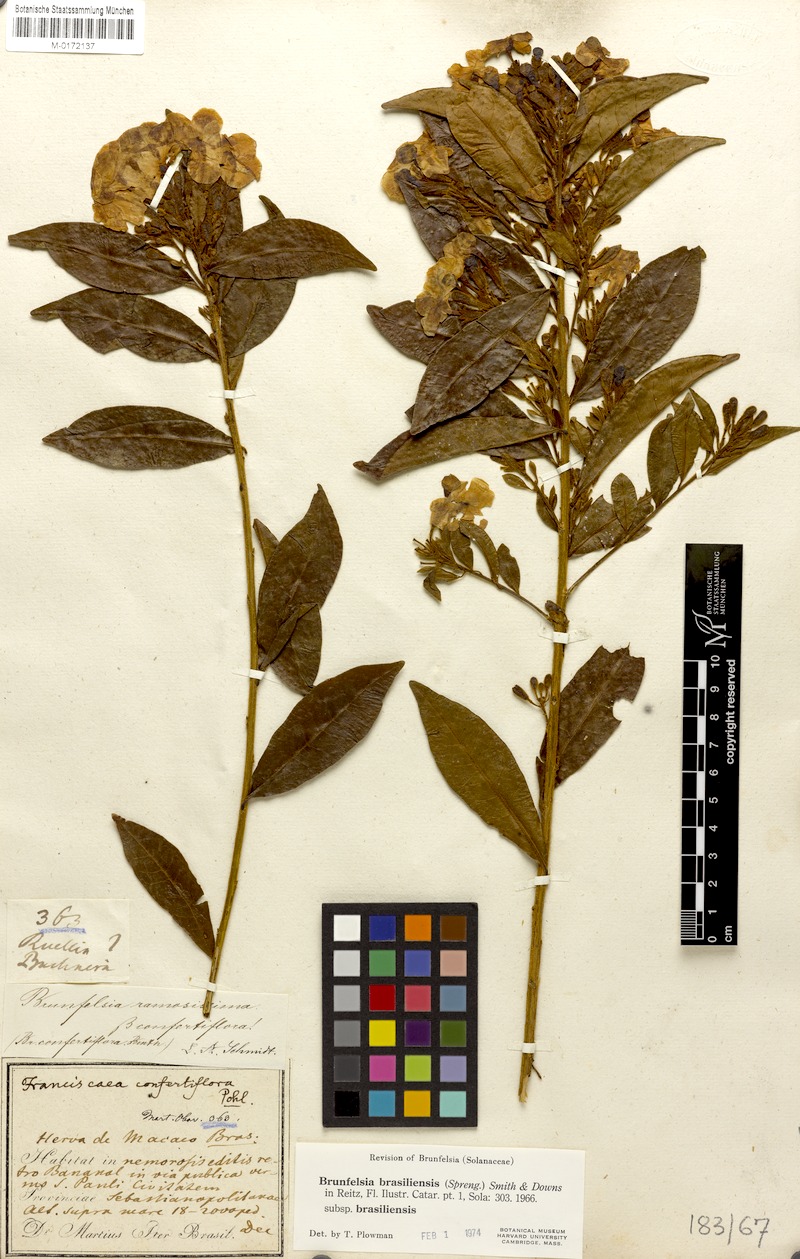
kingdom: Plantae
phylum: Tracheophyta
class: Magnoliopsida
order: Solanales
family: Solanaceae
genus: Brunfelsia
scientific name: Brunfelsia brasiliensis
